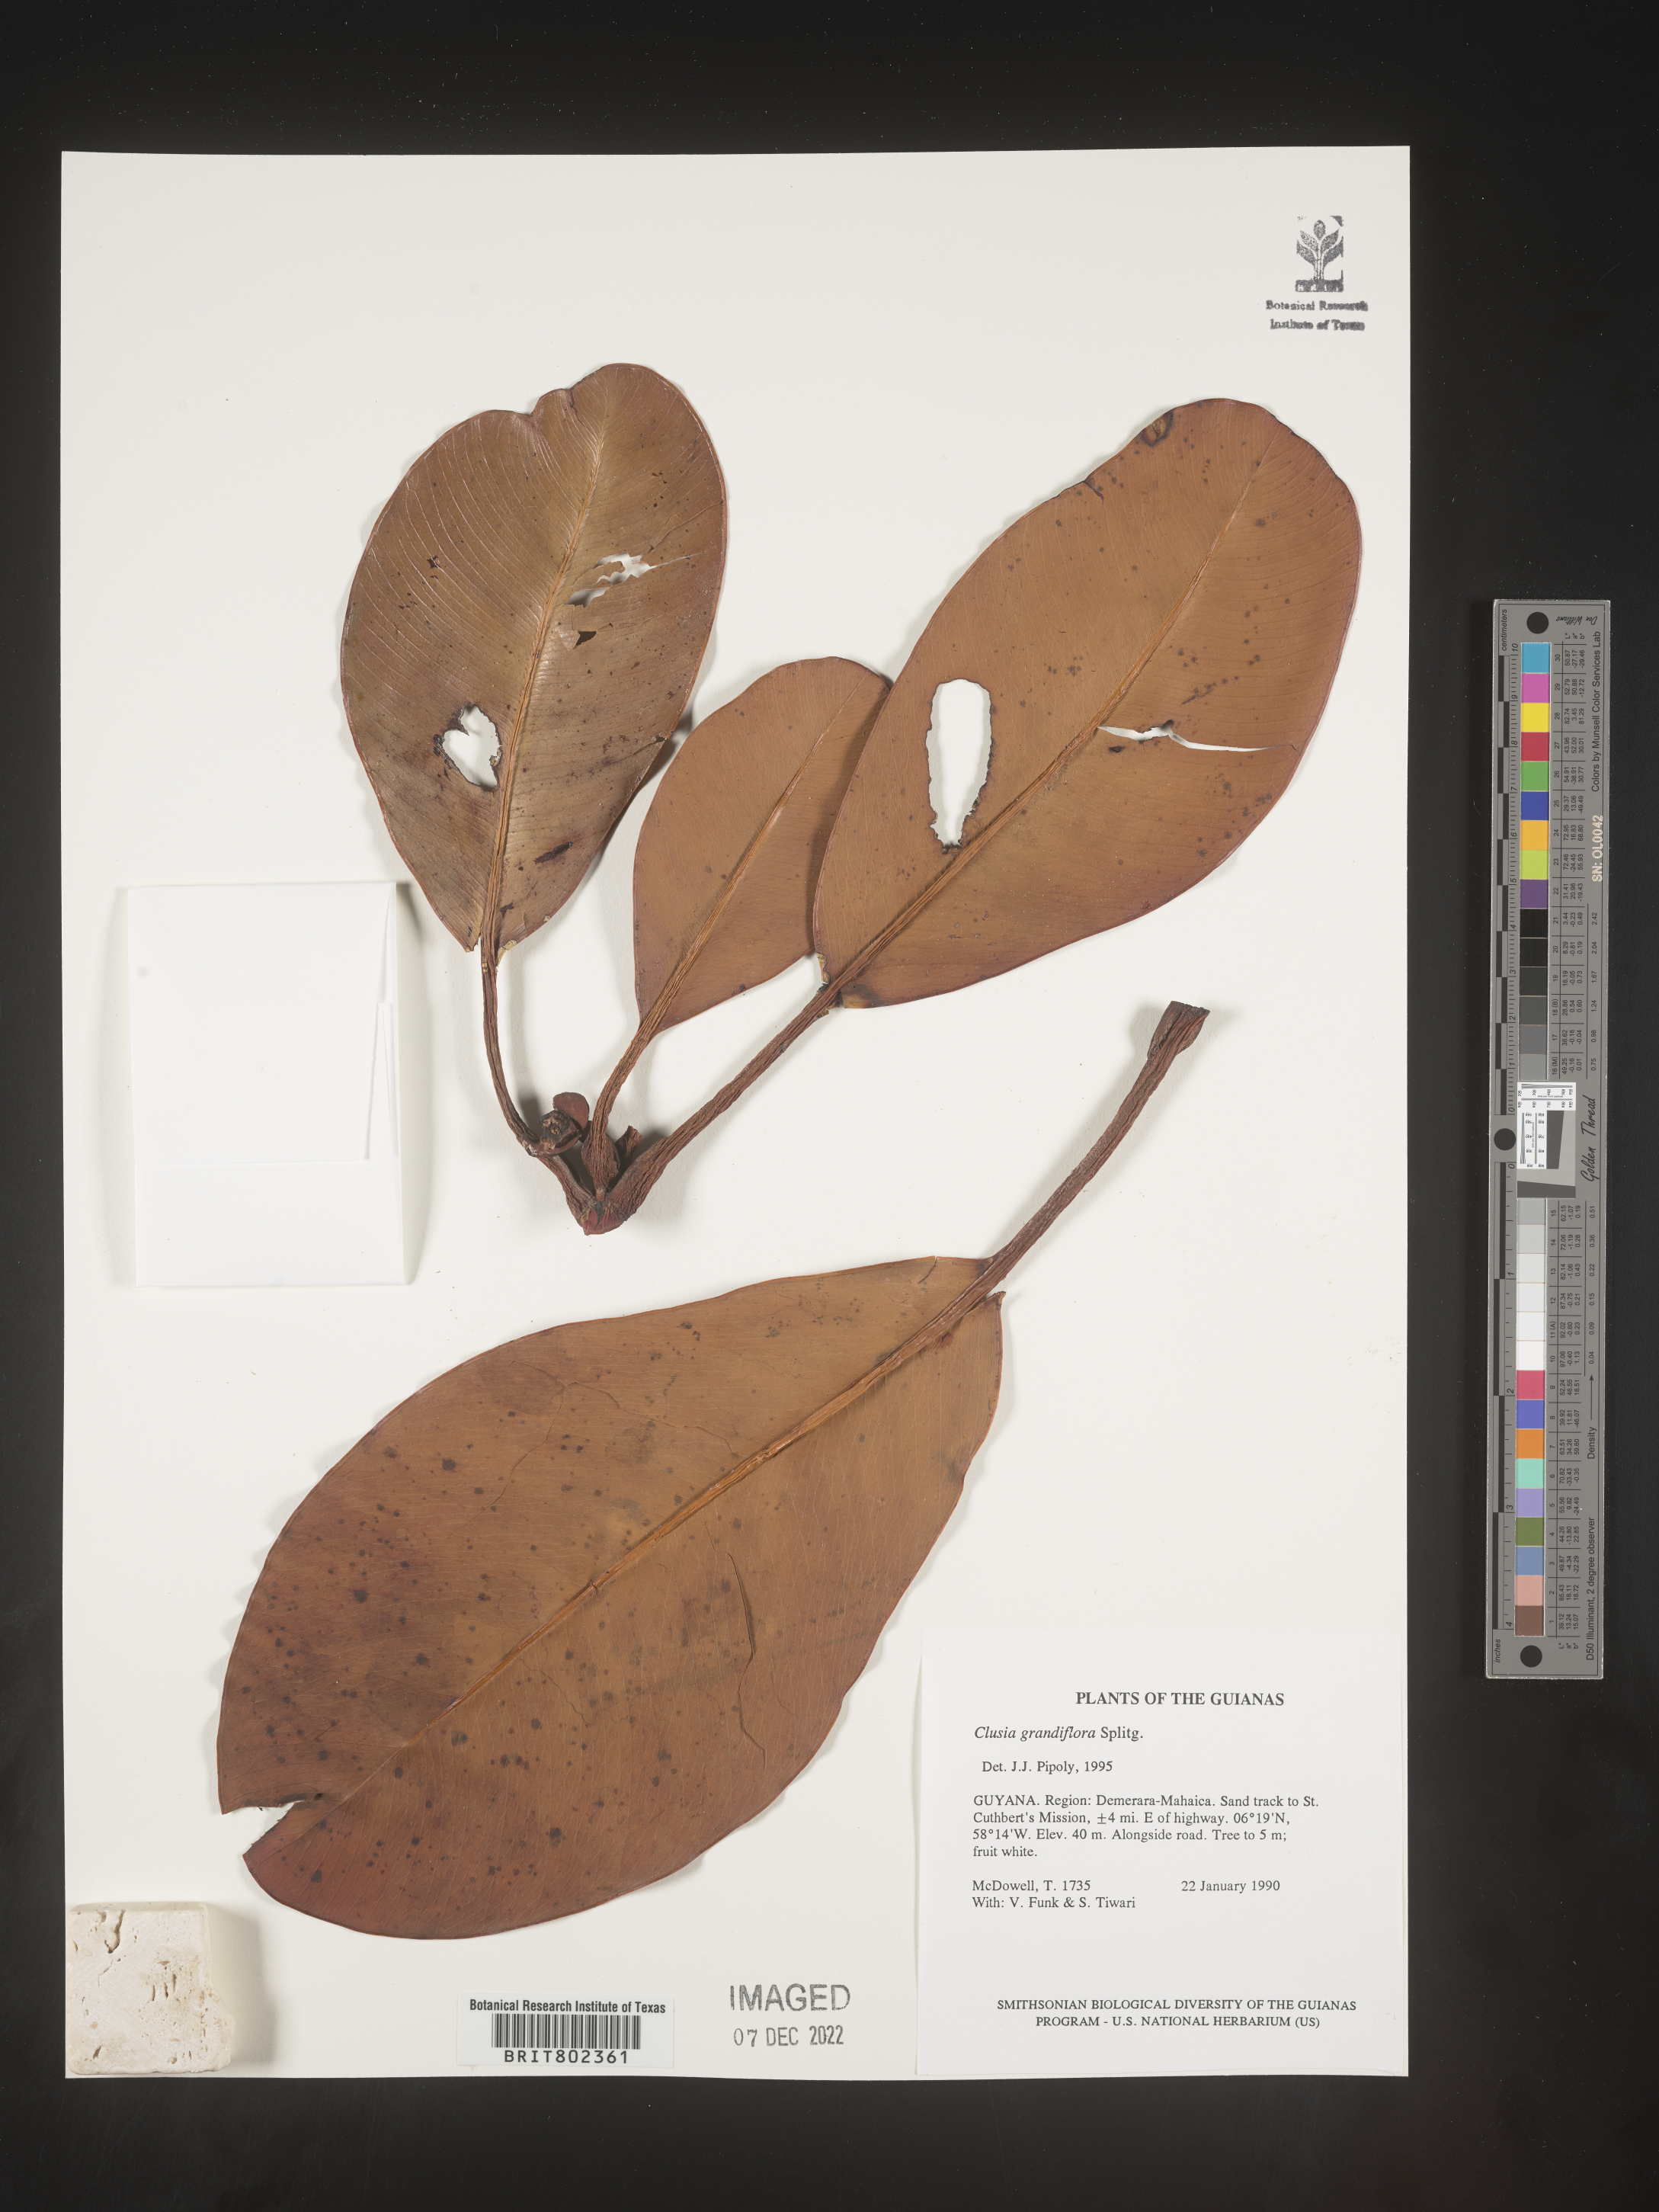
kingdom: Plantae
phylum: Tracheophyta
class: Magnoliopsida
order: Malpighiales
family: Clusiaceae
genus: Clusia
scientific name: Clusia grandiflora
